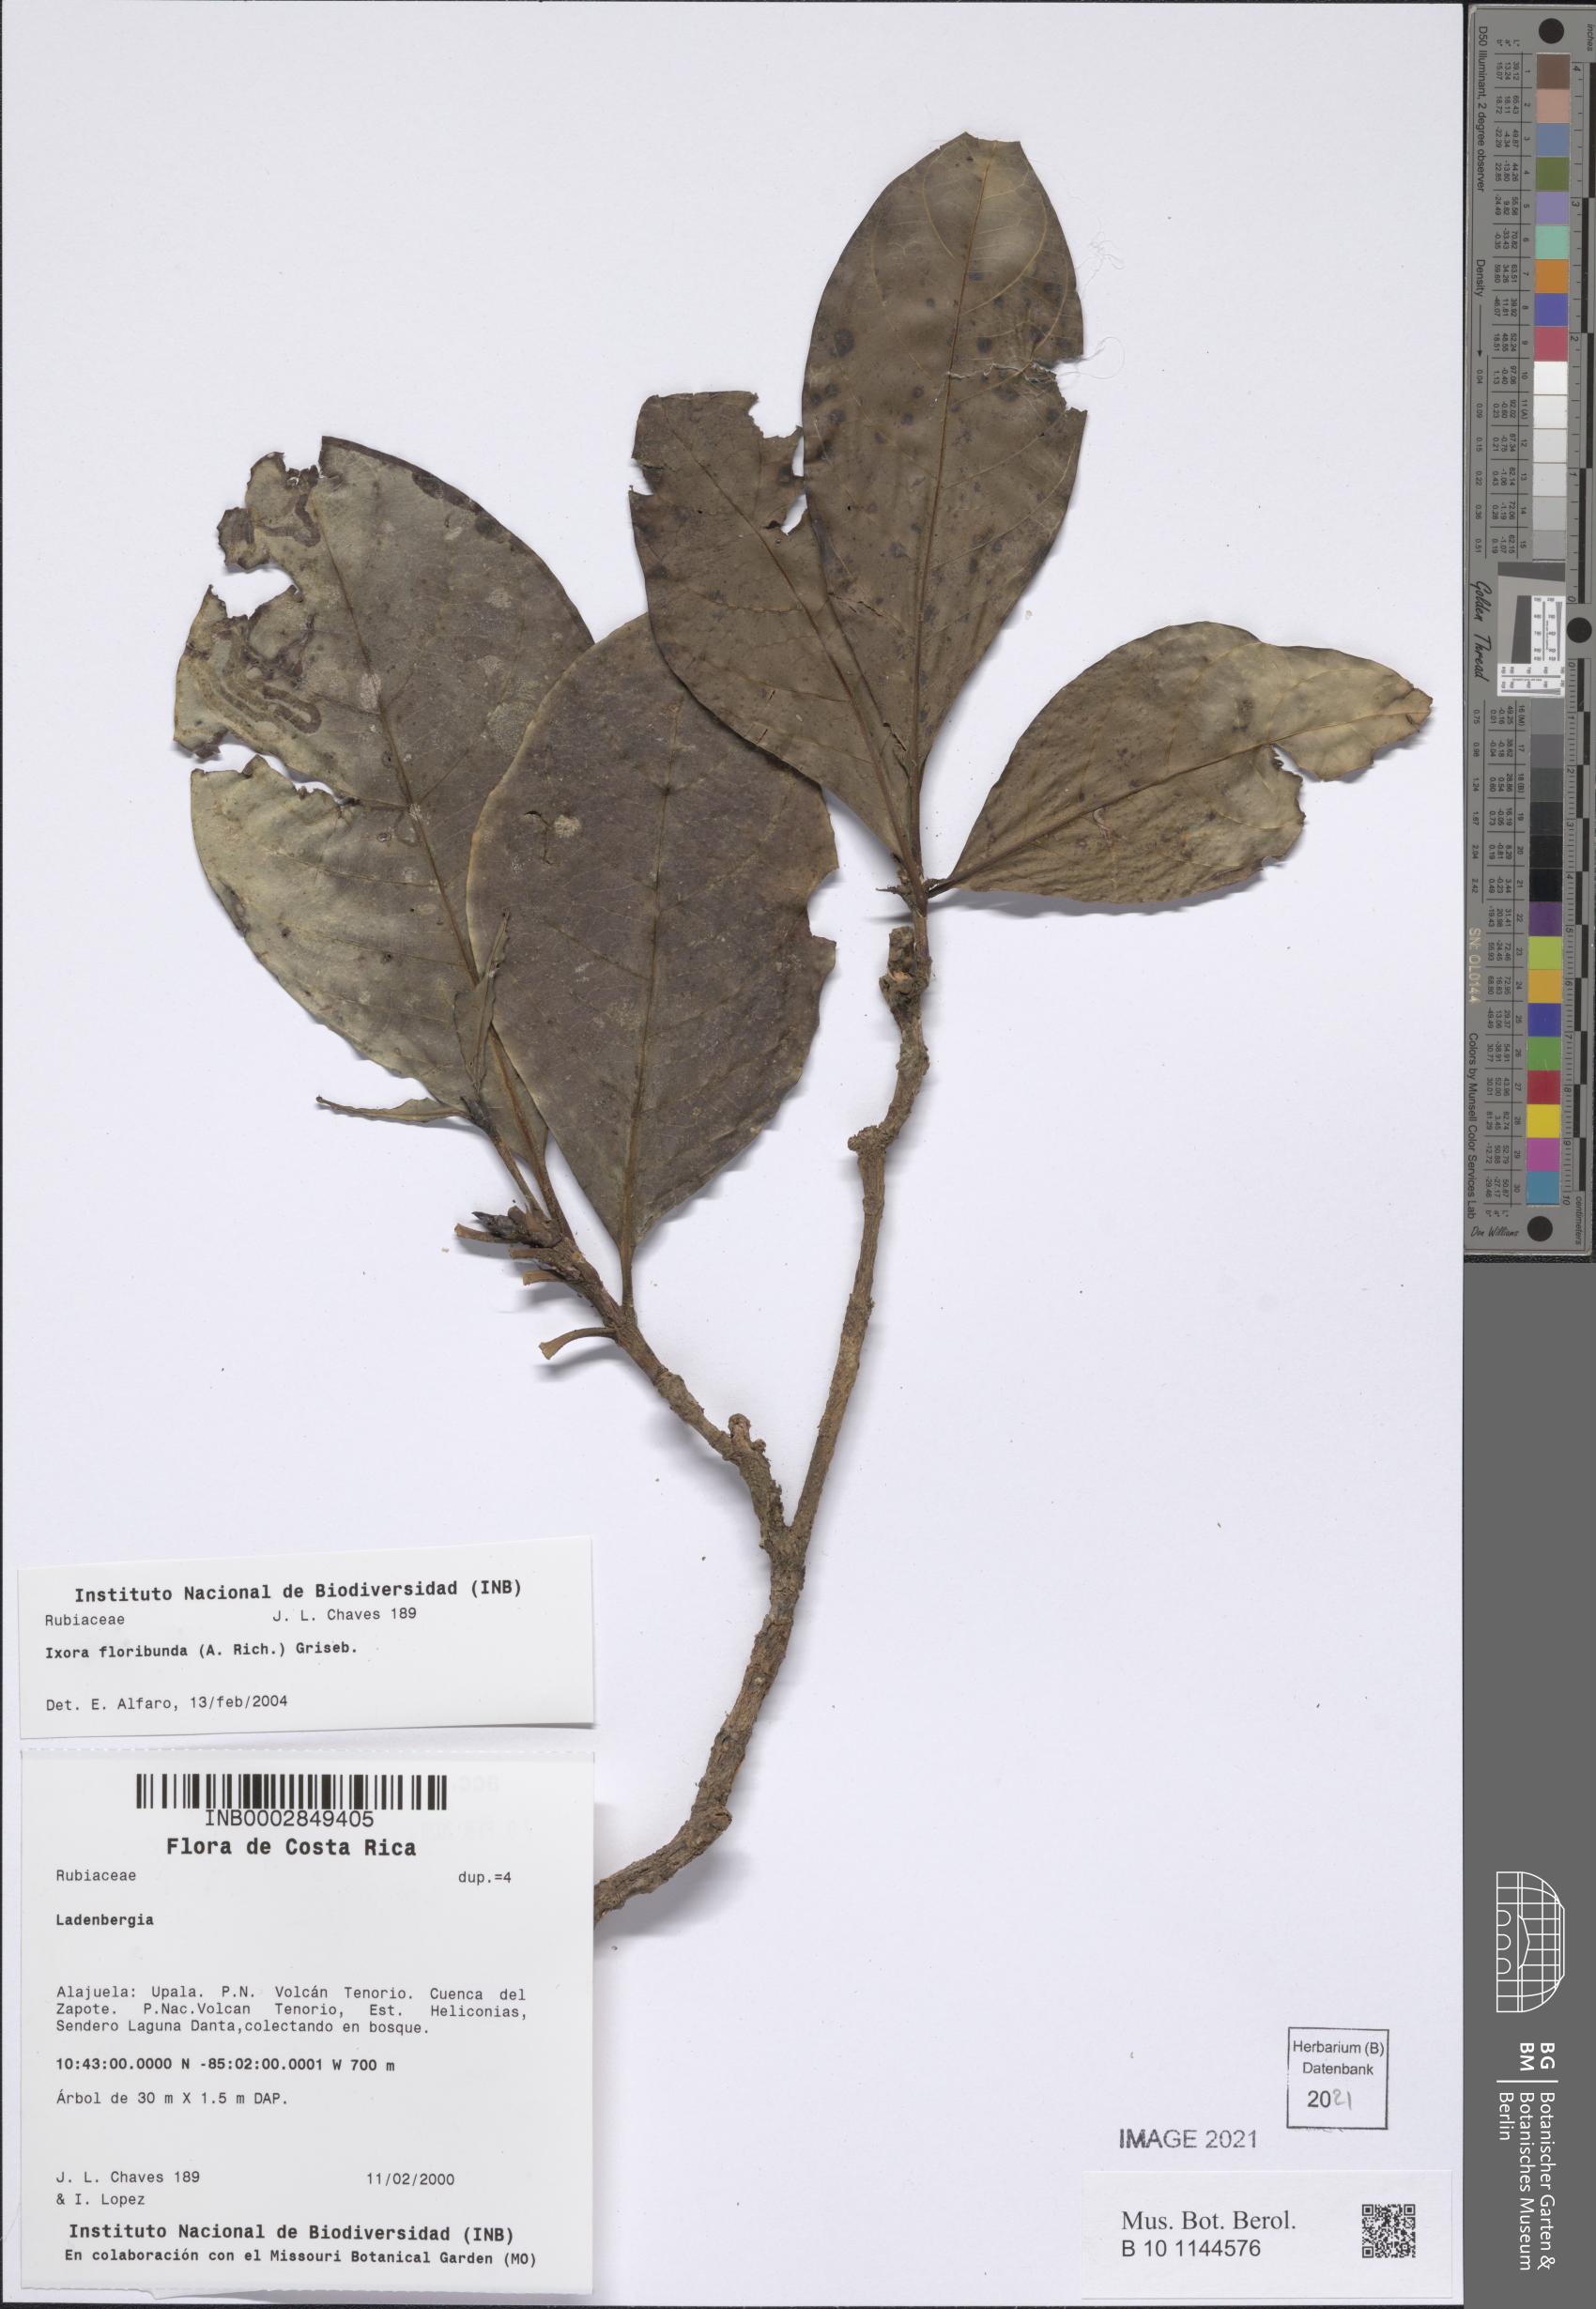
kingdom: Plantae
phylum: Tracheophyta
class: Magnoliopsida
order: Gentianales
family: Rubiaceae
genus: Warszewiczia
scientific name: Warszewiczia uxpanapensis
